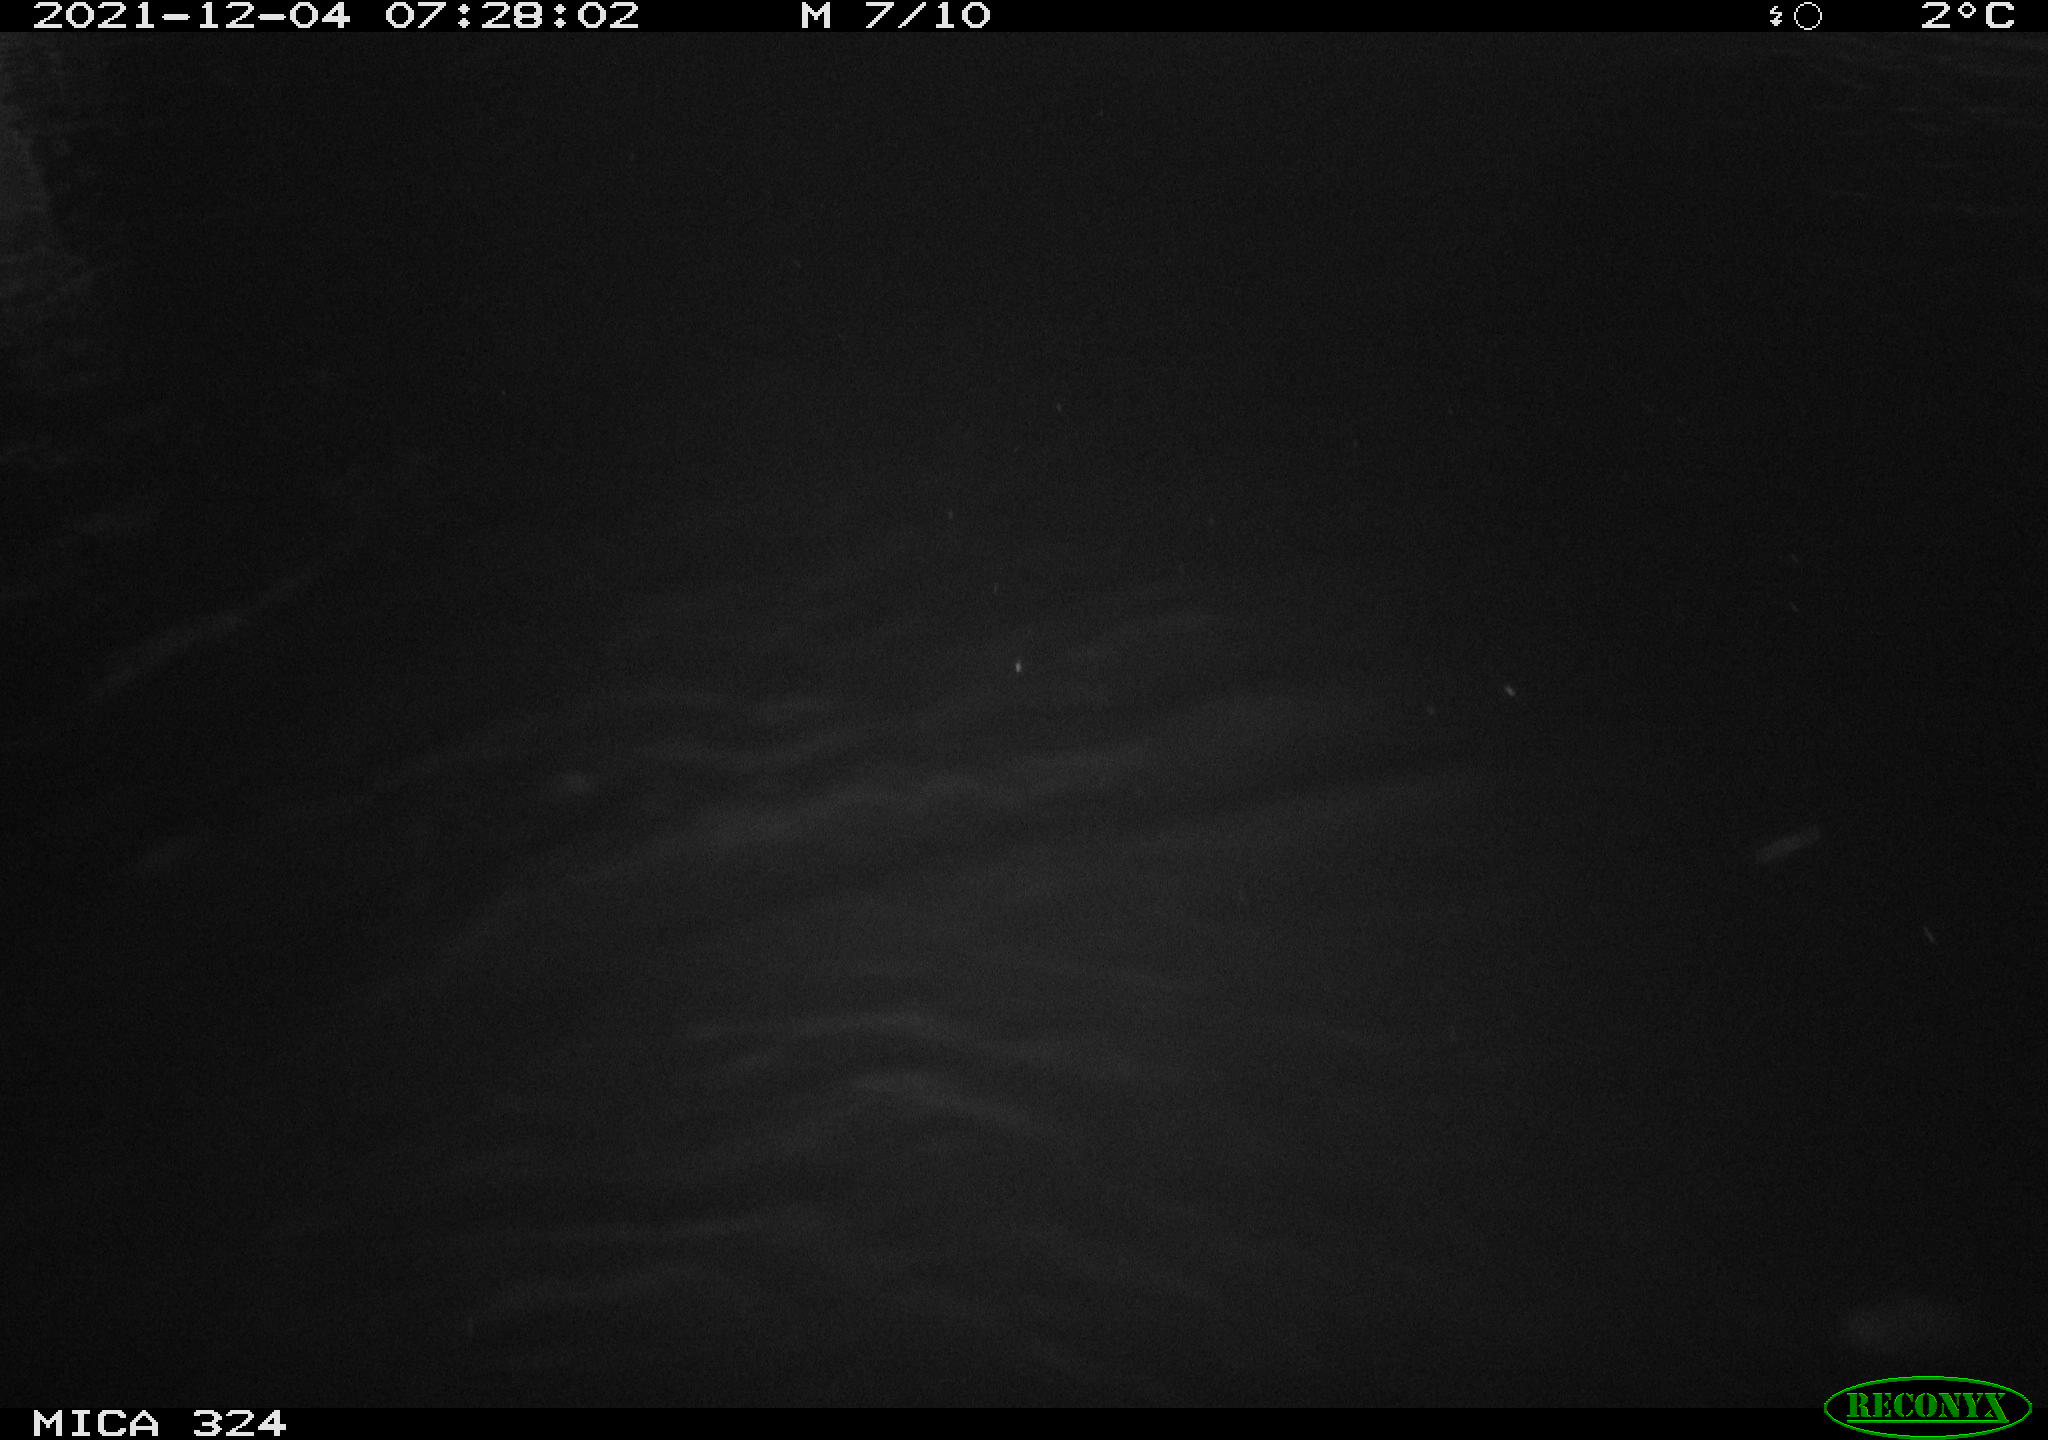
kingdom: Animalia
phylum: Chordata
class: Mammalia
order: Rodentia
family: Cricetidae
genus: Ondatra
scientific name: Ondatra zibethicus
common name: Muskrat
